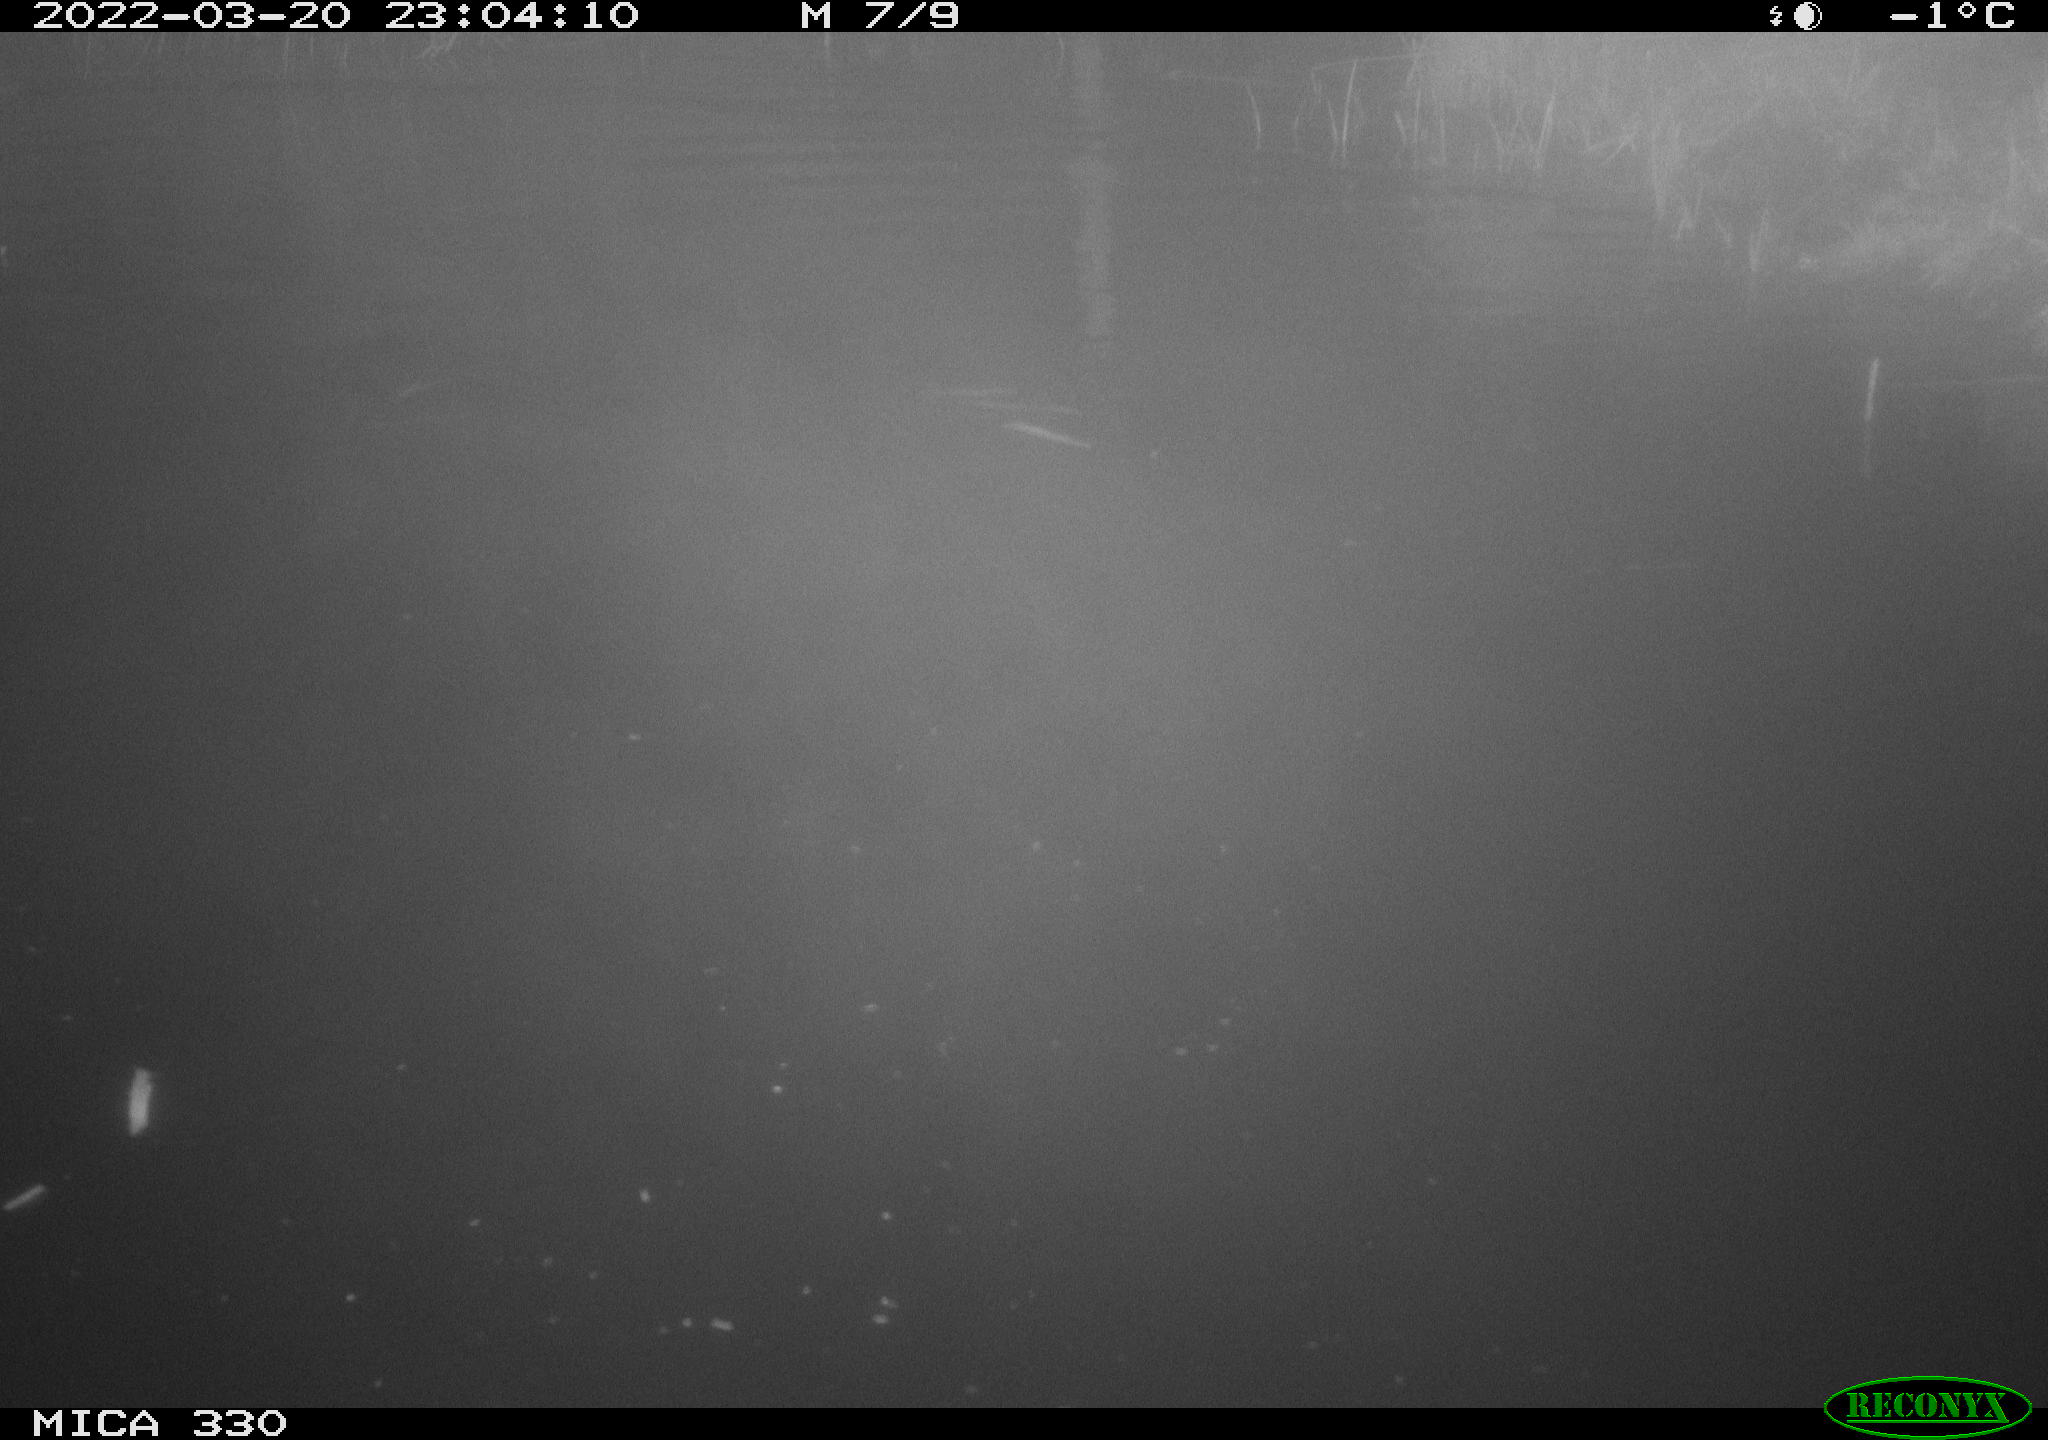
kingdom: Animalia
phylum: Chordata
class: Aves
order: Anseriformes
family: Anatidae
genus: Anas
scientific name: Anas platyrhynchos
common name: Mallard
